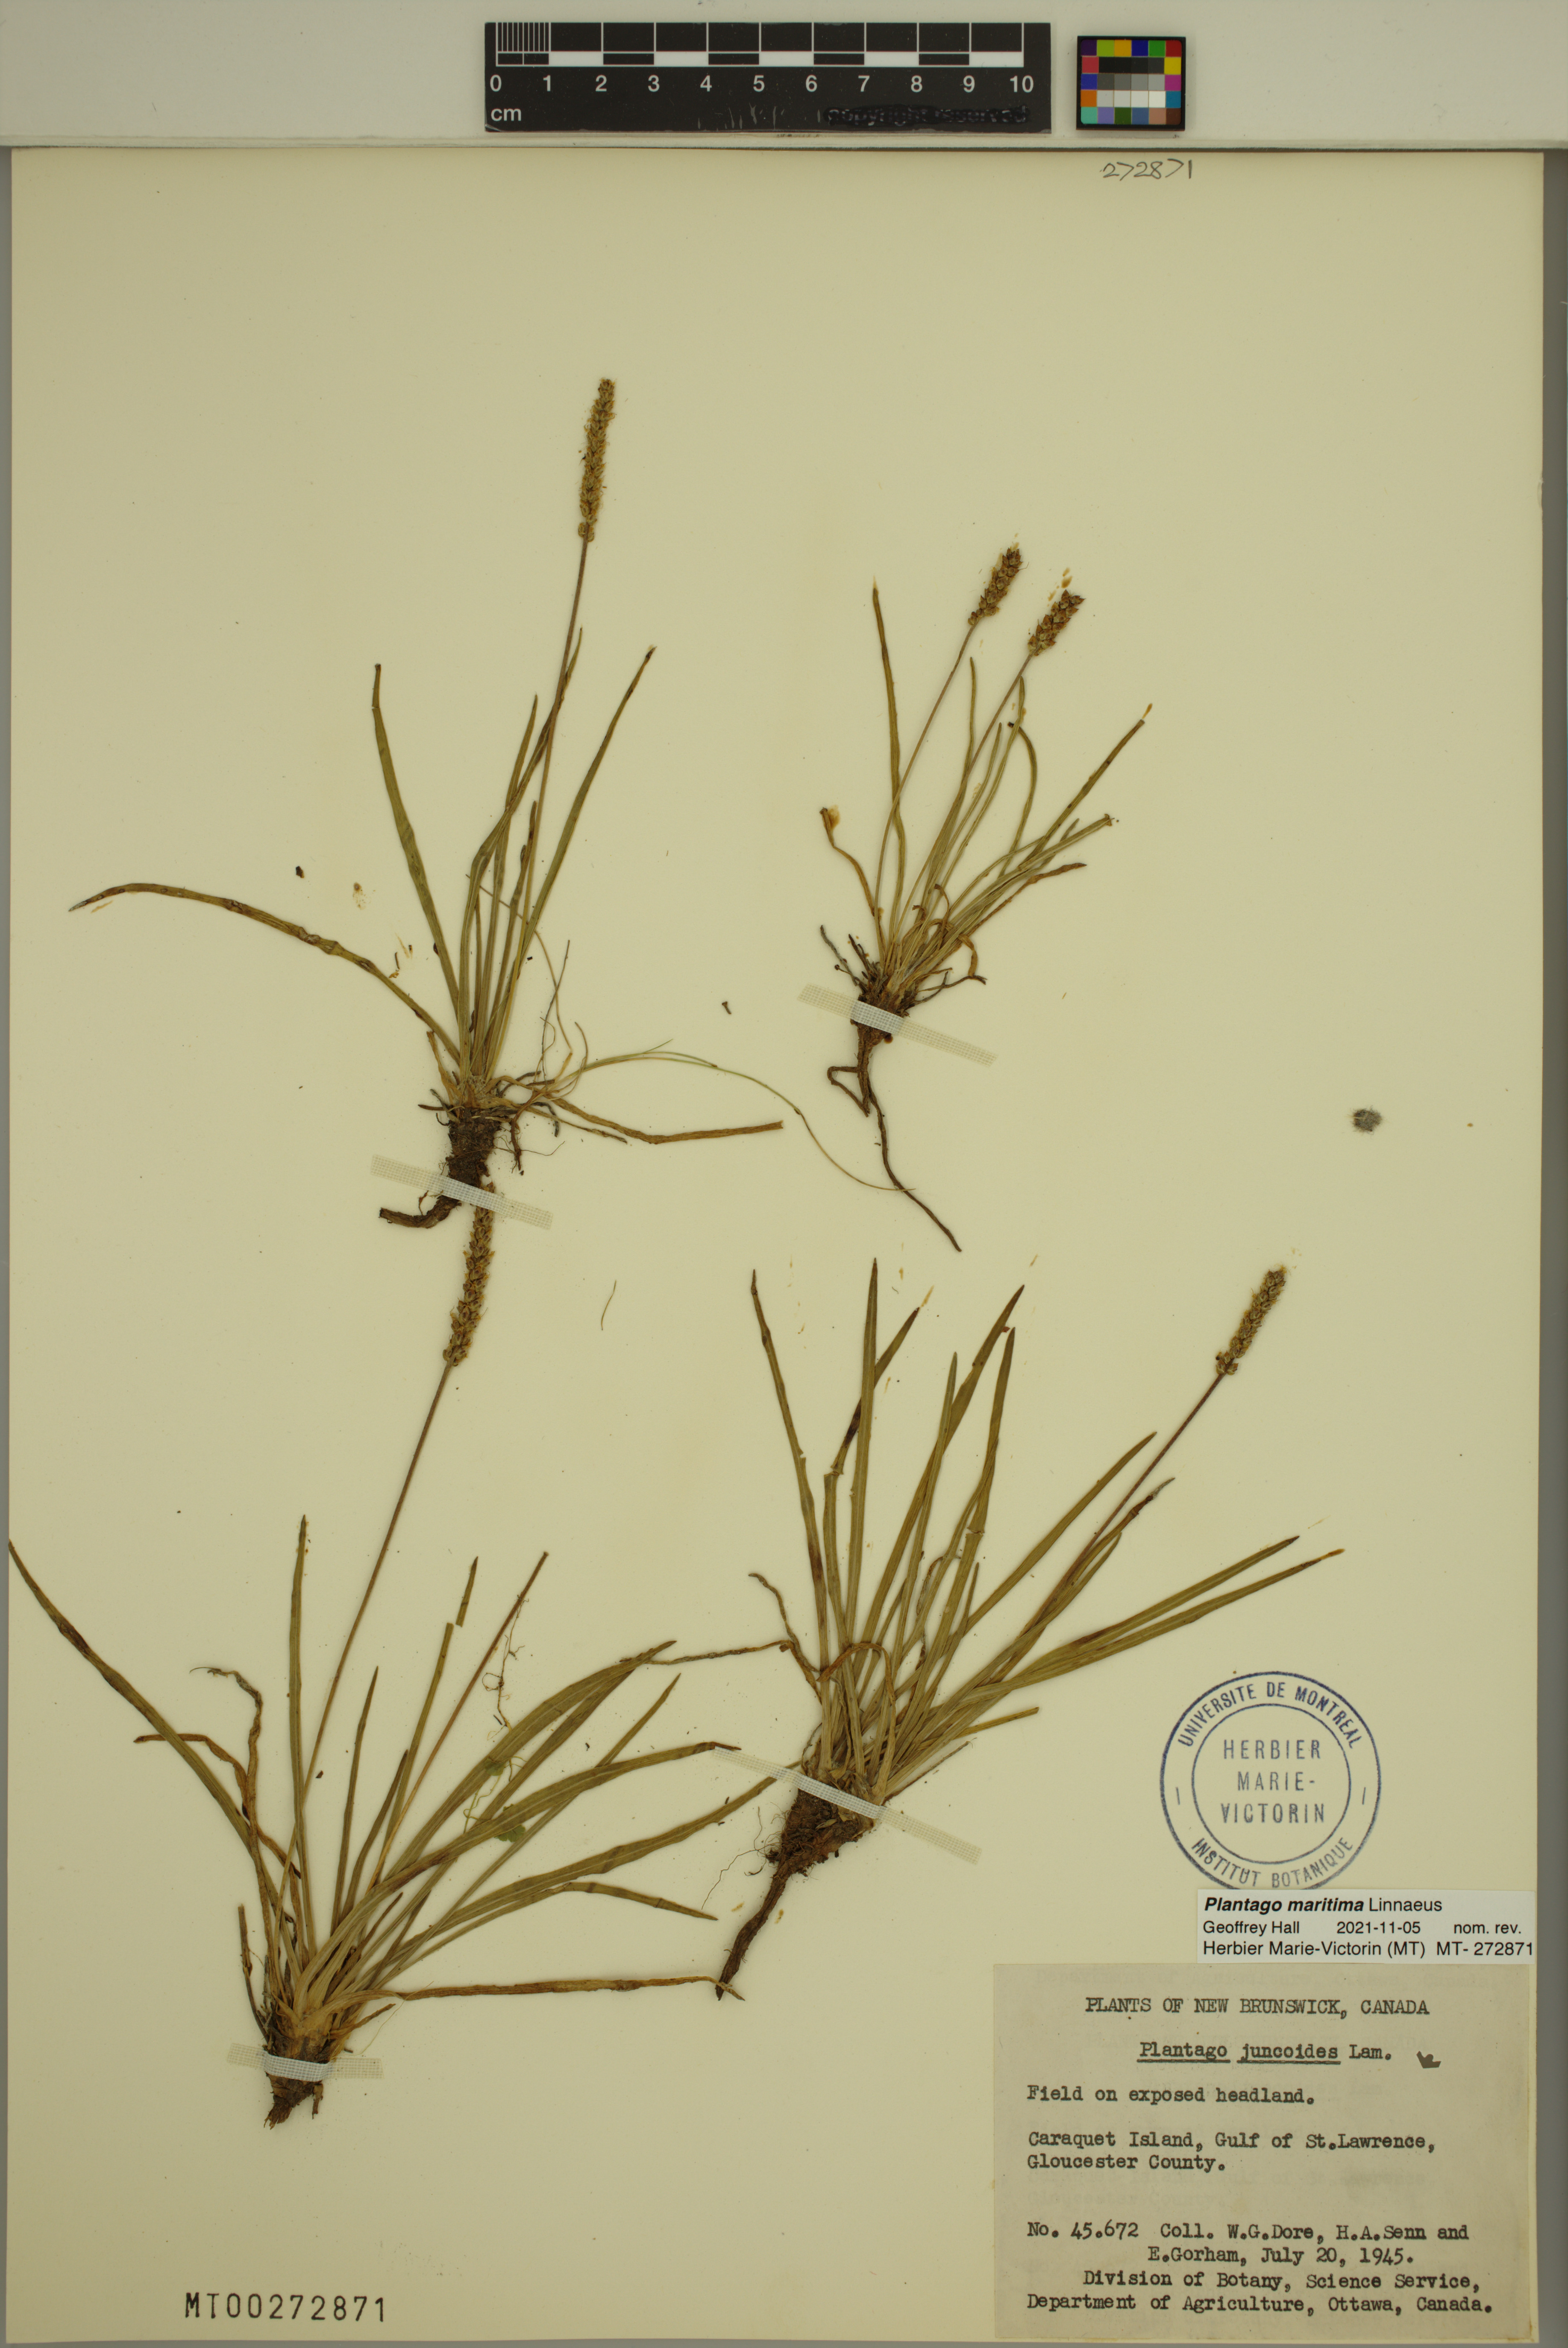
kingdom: Plantae
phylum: Tracheophyta
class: Magnoliopsida
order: Lamiales
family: Plantaginaceae
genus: Plantago
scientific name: Plantago maritima
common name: Sea plantain
